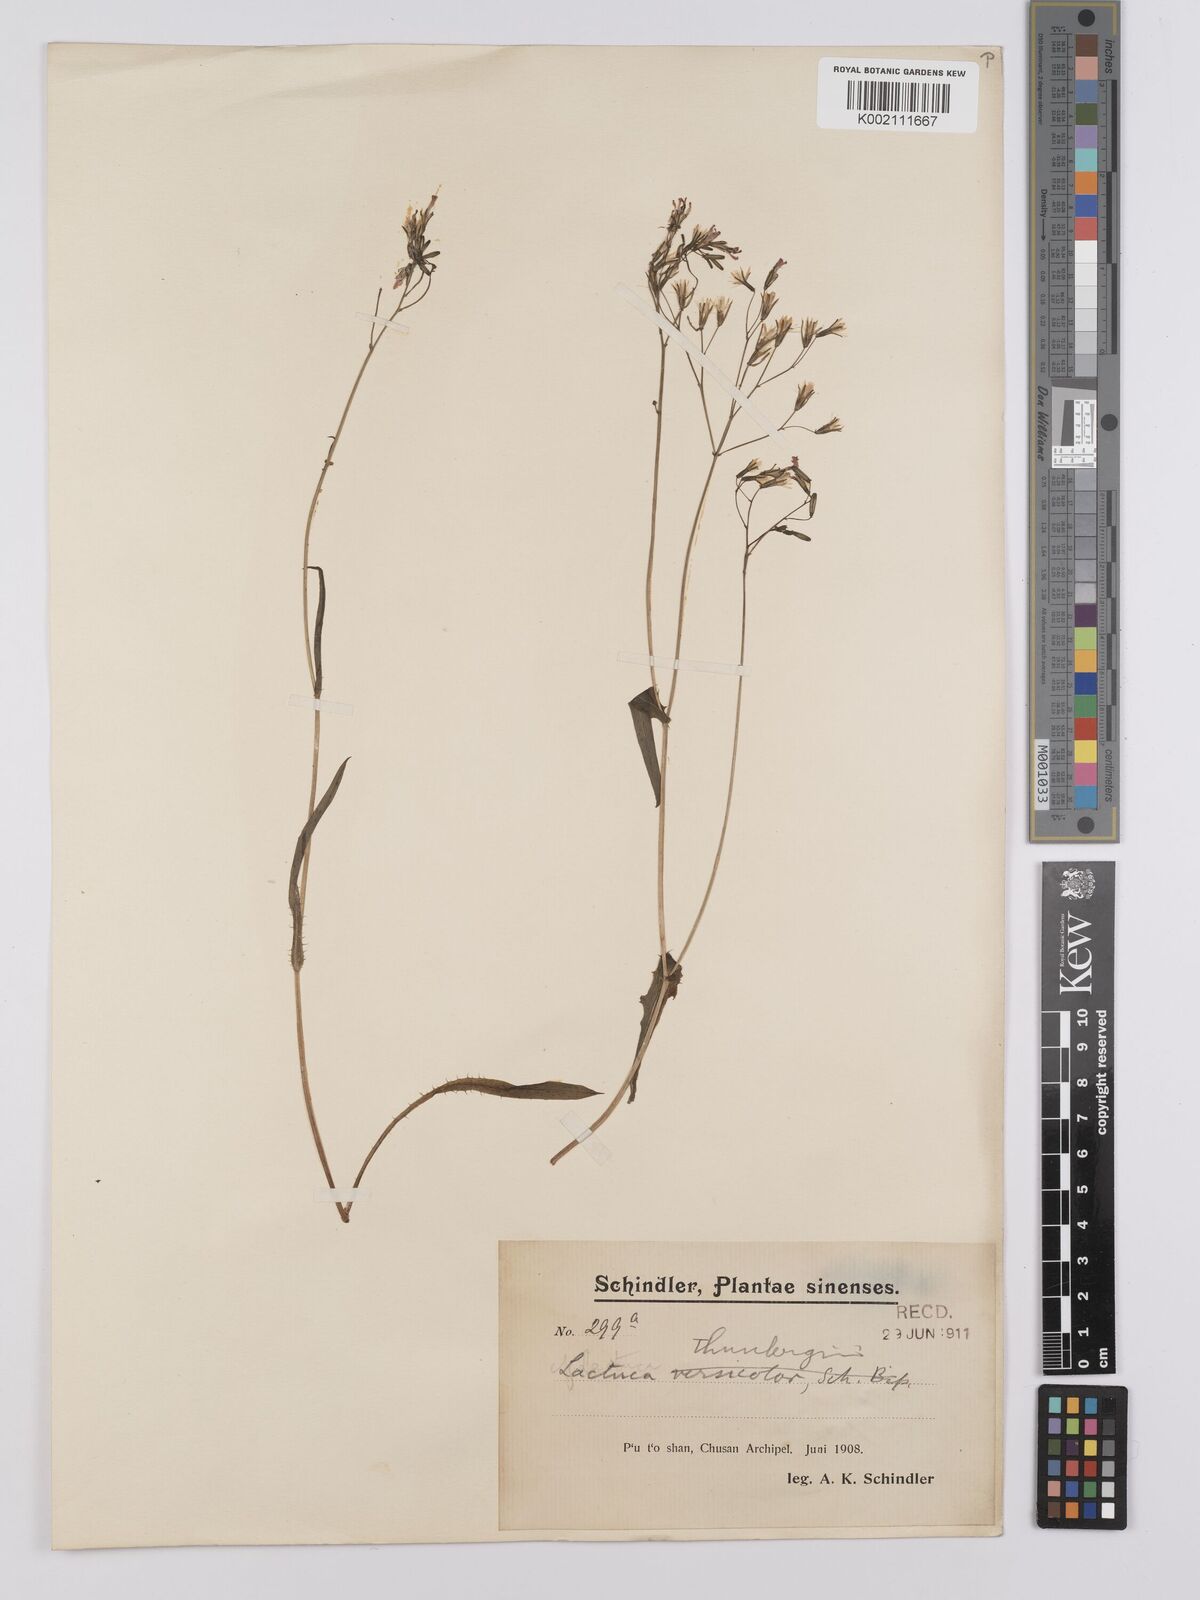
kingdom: Plantae
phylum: Tracheophyta
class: Magnoliopsida
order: Asterales
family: Asteraceae
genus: Ixeridium
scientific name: Ixeridium dentatum
